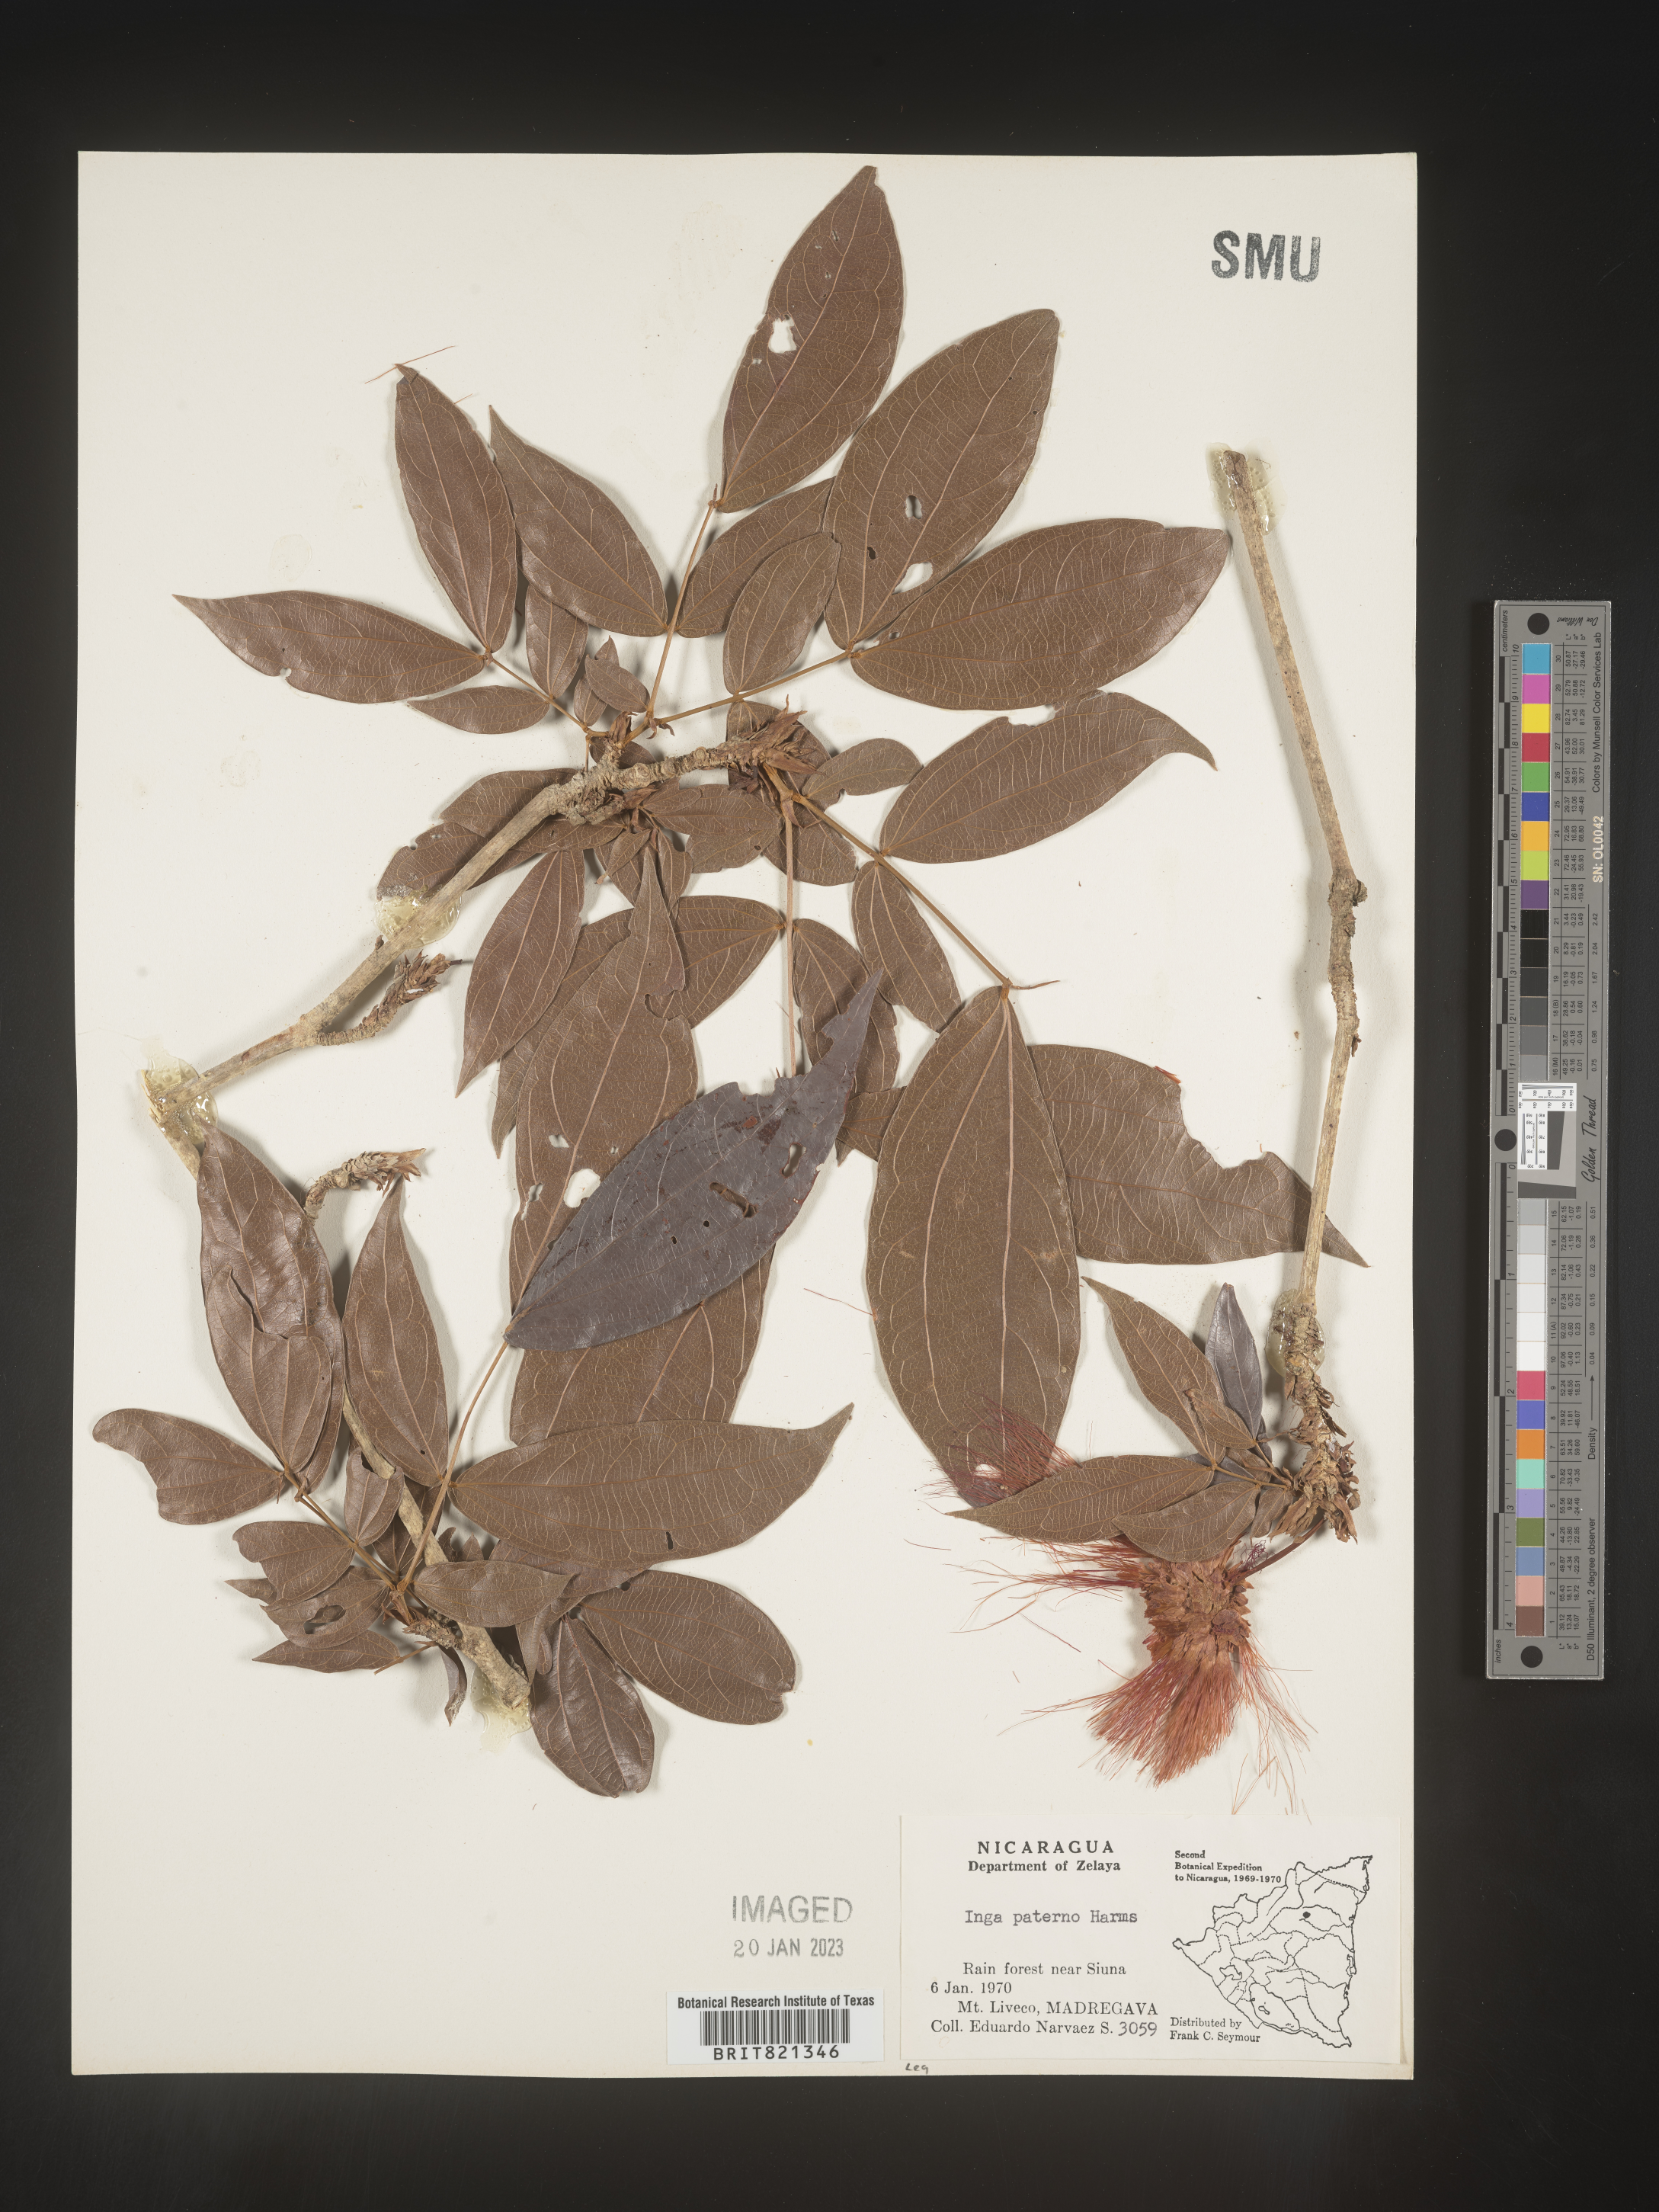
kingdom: Plantae
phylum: Tracheophyta
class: Magnoliopsida
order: Fabales
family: Fabaceae
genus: Inga
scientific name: Inga
